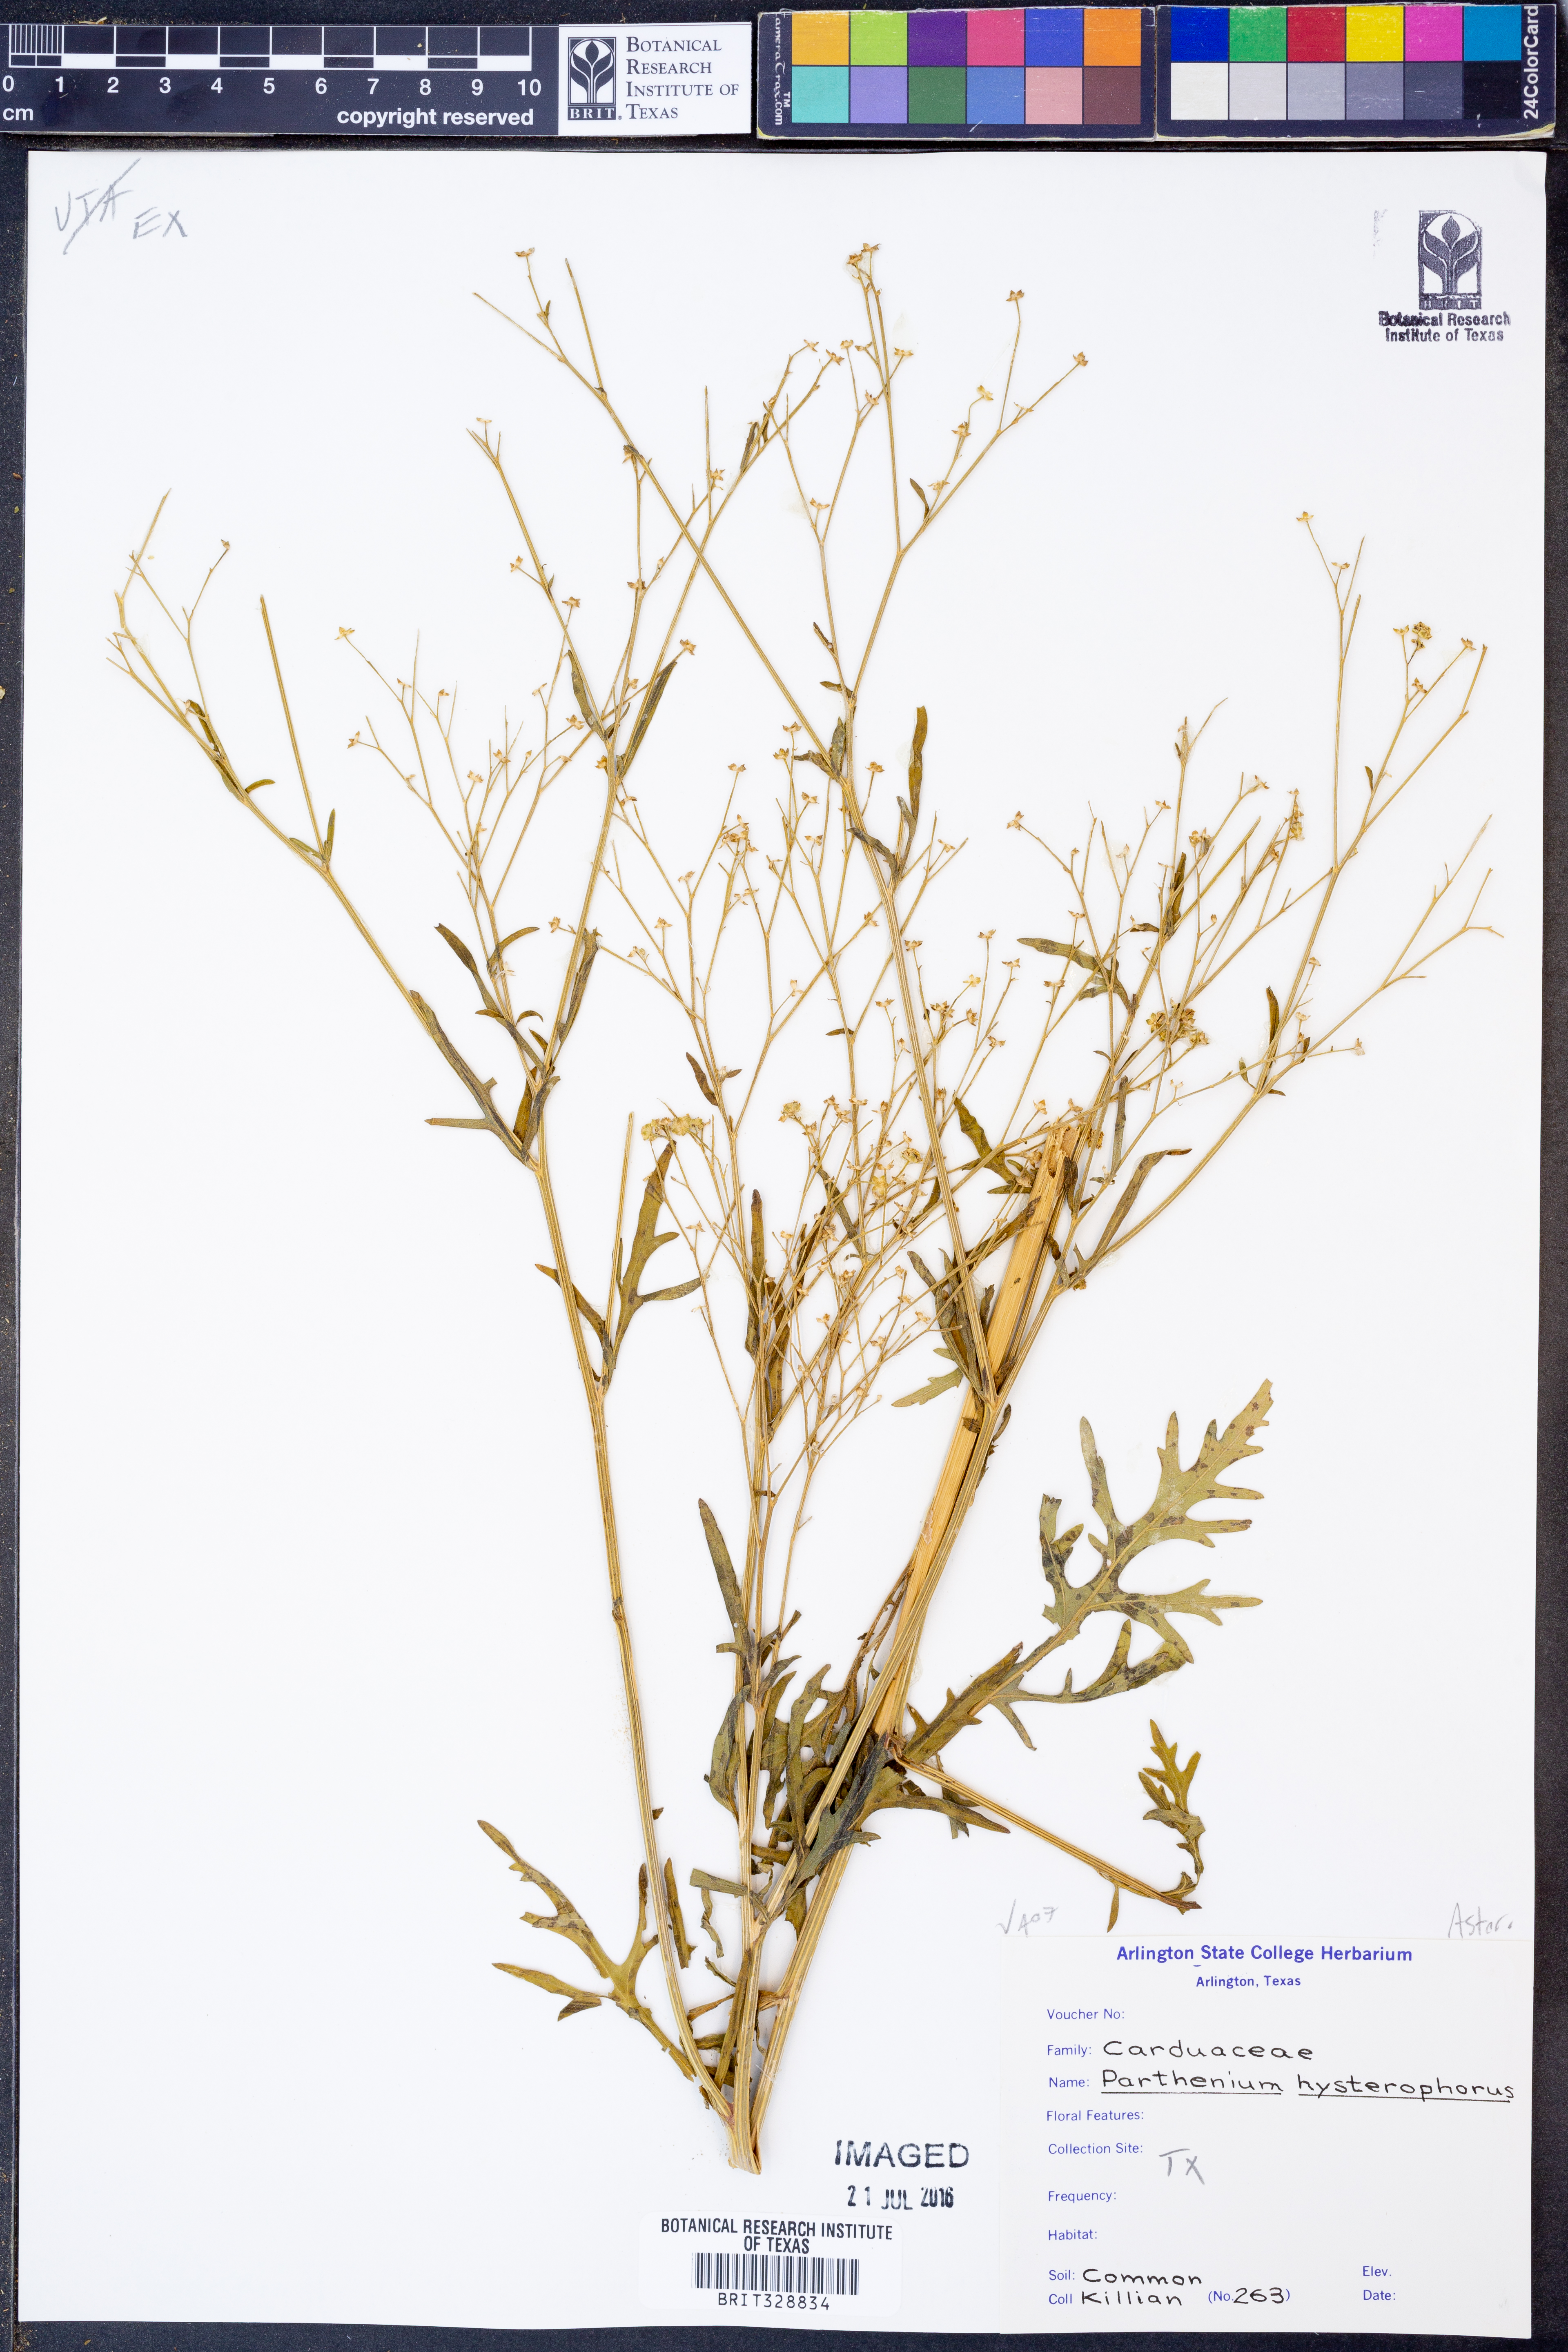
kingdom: Plantae
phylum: Tracheophyta
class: Magnoliopsida
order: Asterales
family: Asteraceae
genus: Parthenium
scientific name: Parthenium hysterophorus
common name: Santa maria feverfew
